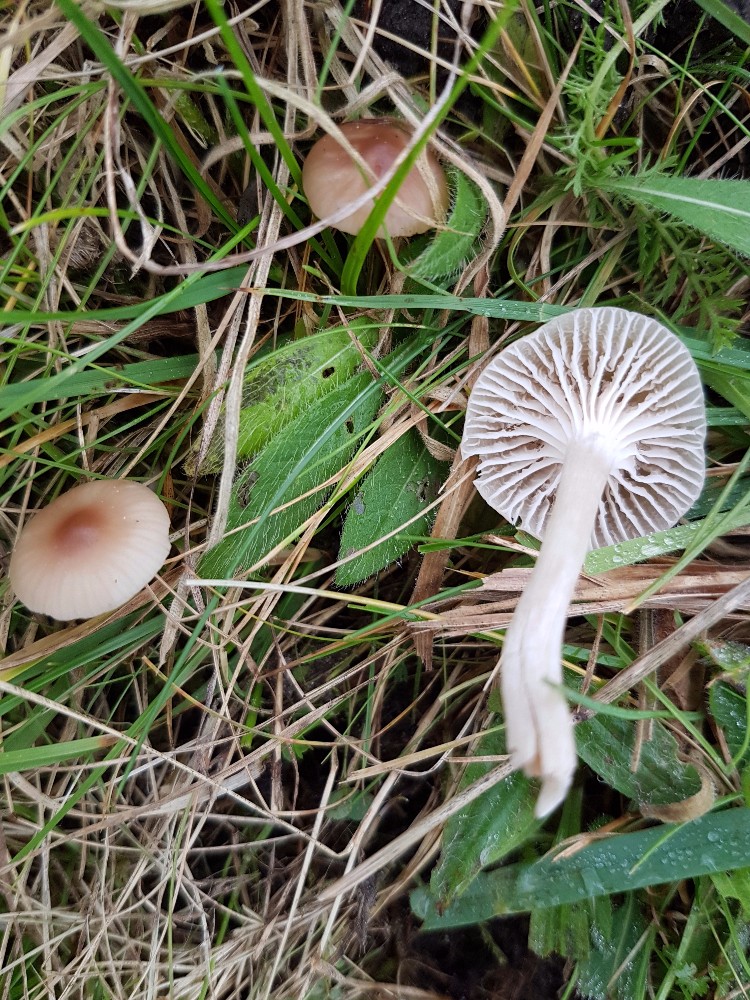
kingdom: Fungi
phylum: Basidiomycota
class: Agaricomycetes
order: Agaricales
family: Hygrophoraceae
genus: Cuphophyllus
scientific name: Cuphophyllus virgineus
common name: brunøjet vokshat
